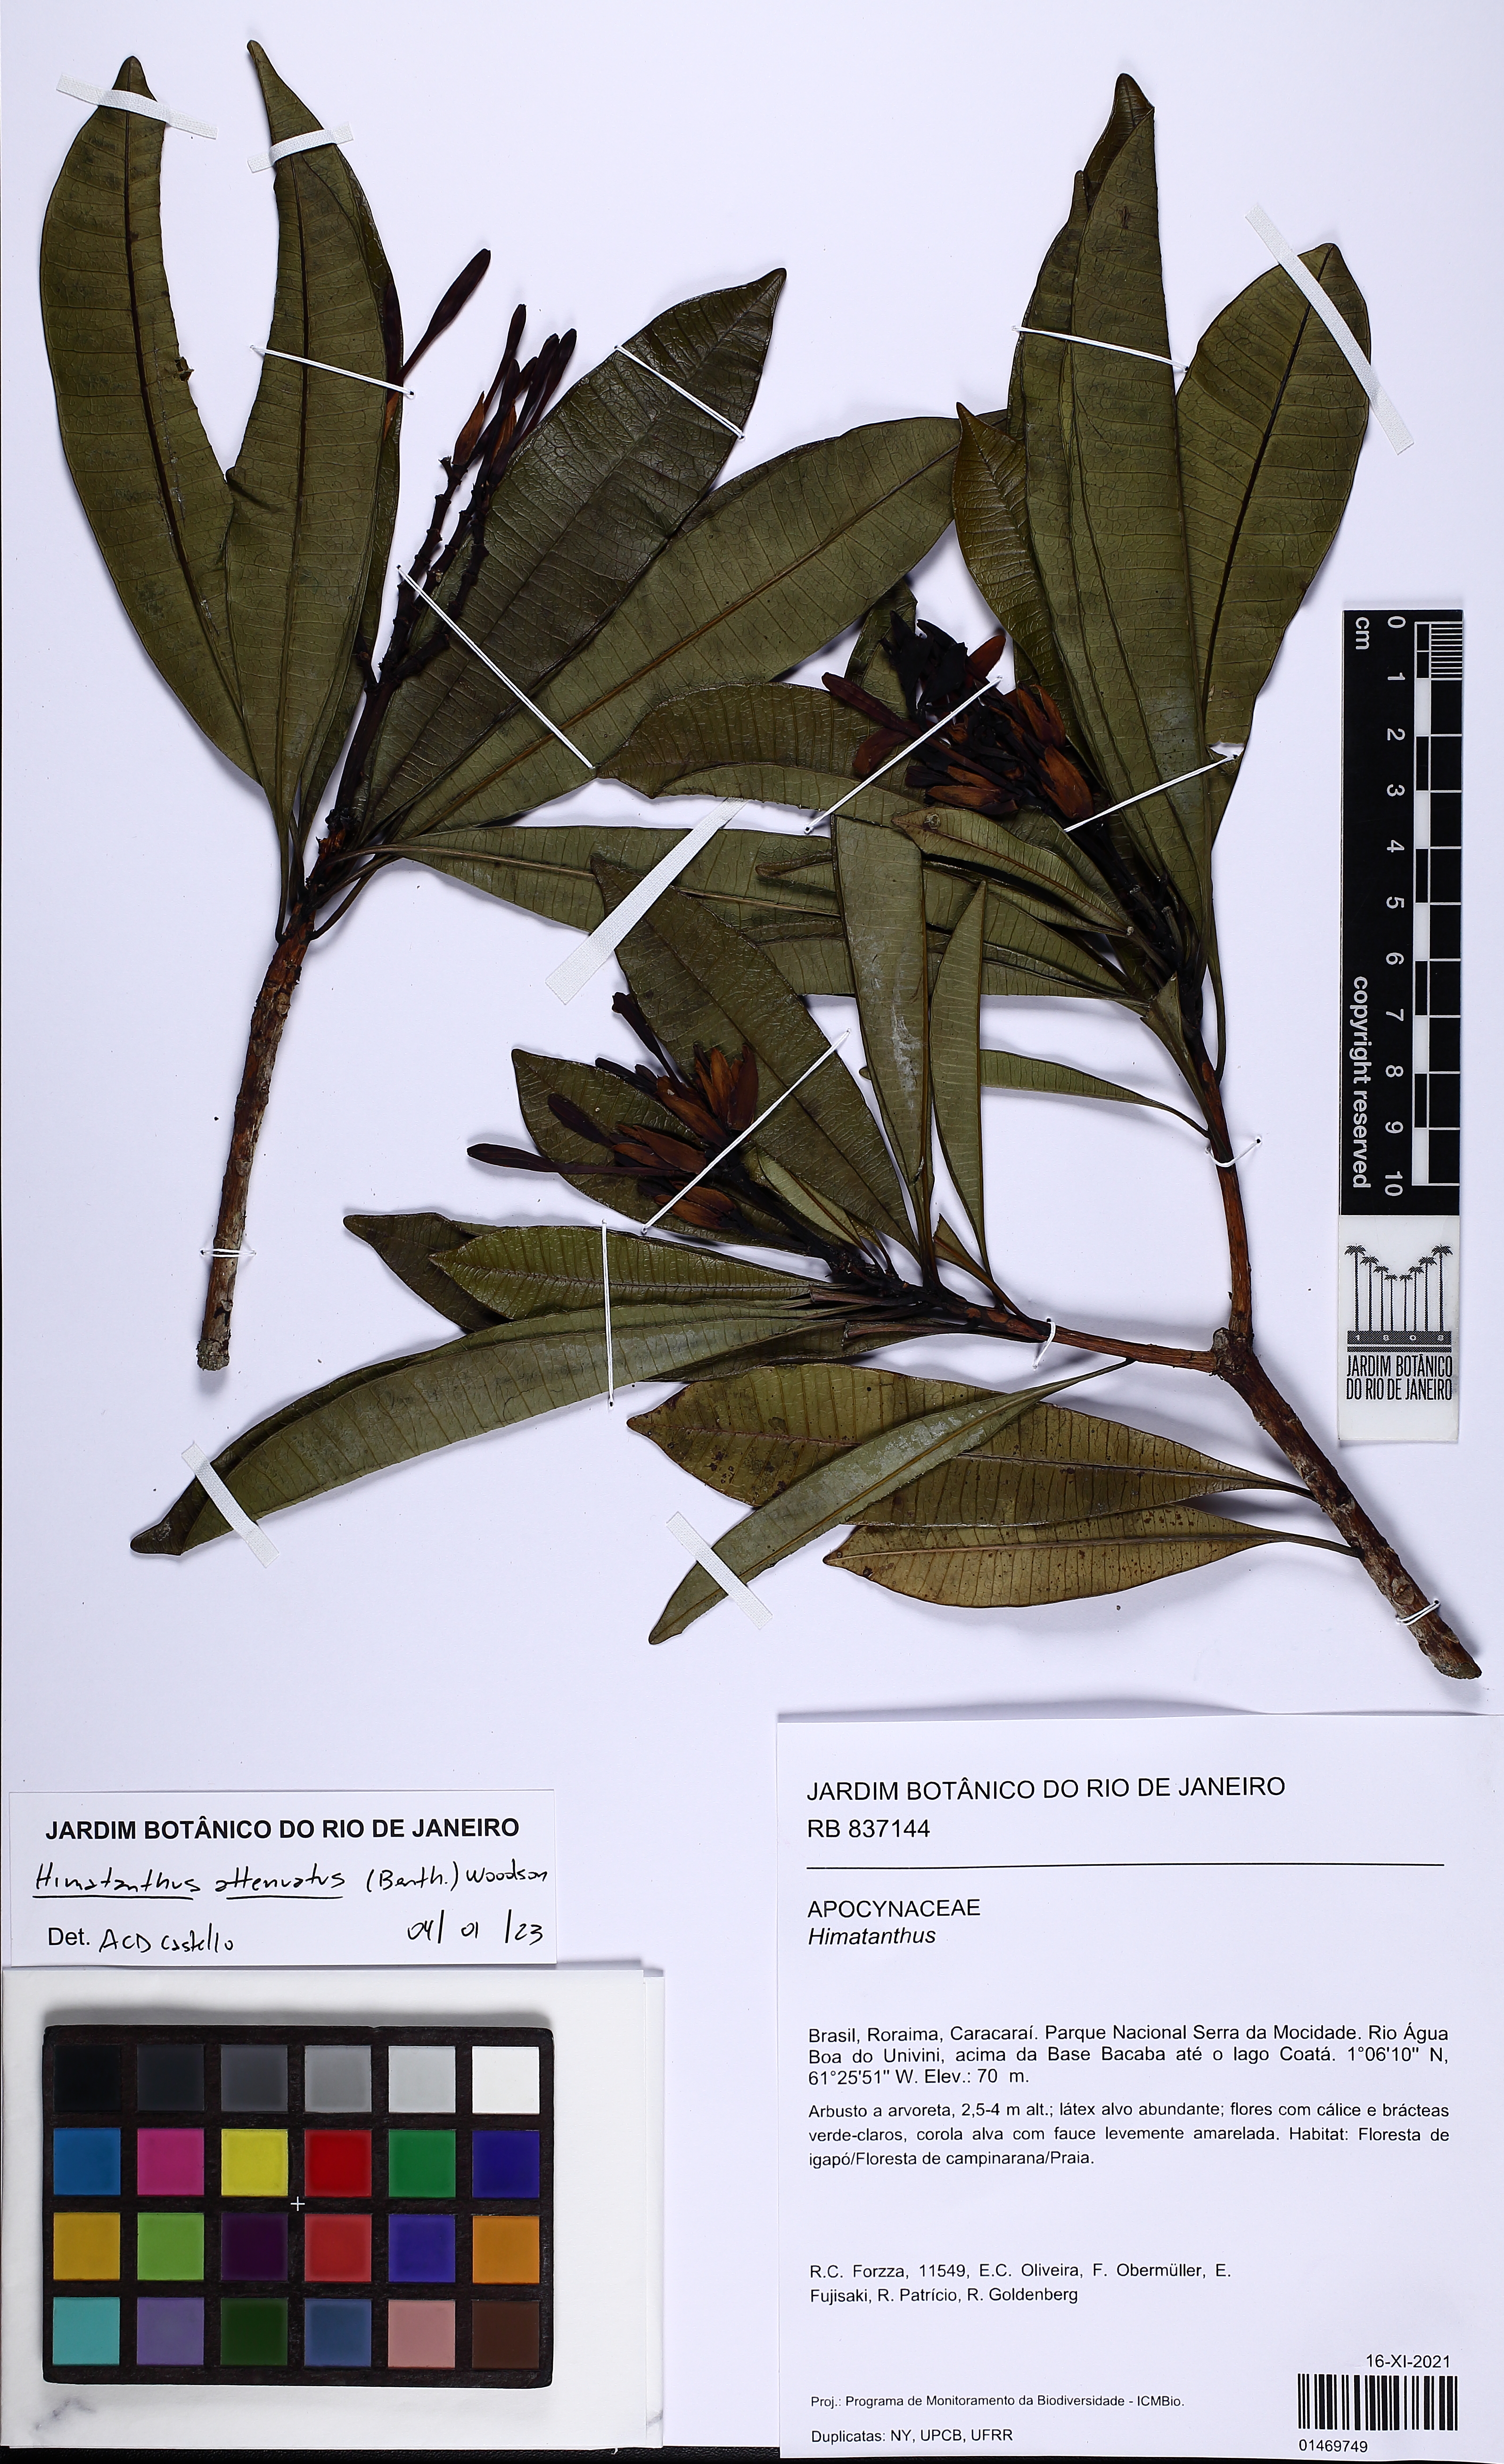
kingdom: Plantae
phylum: Tracheophyta
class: Magnoliopsida
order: Gentianales
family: Apocynaceae
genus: Himatanthus
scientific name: Himatanthus attenuatus
